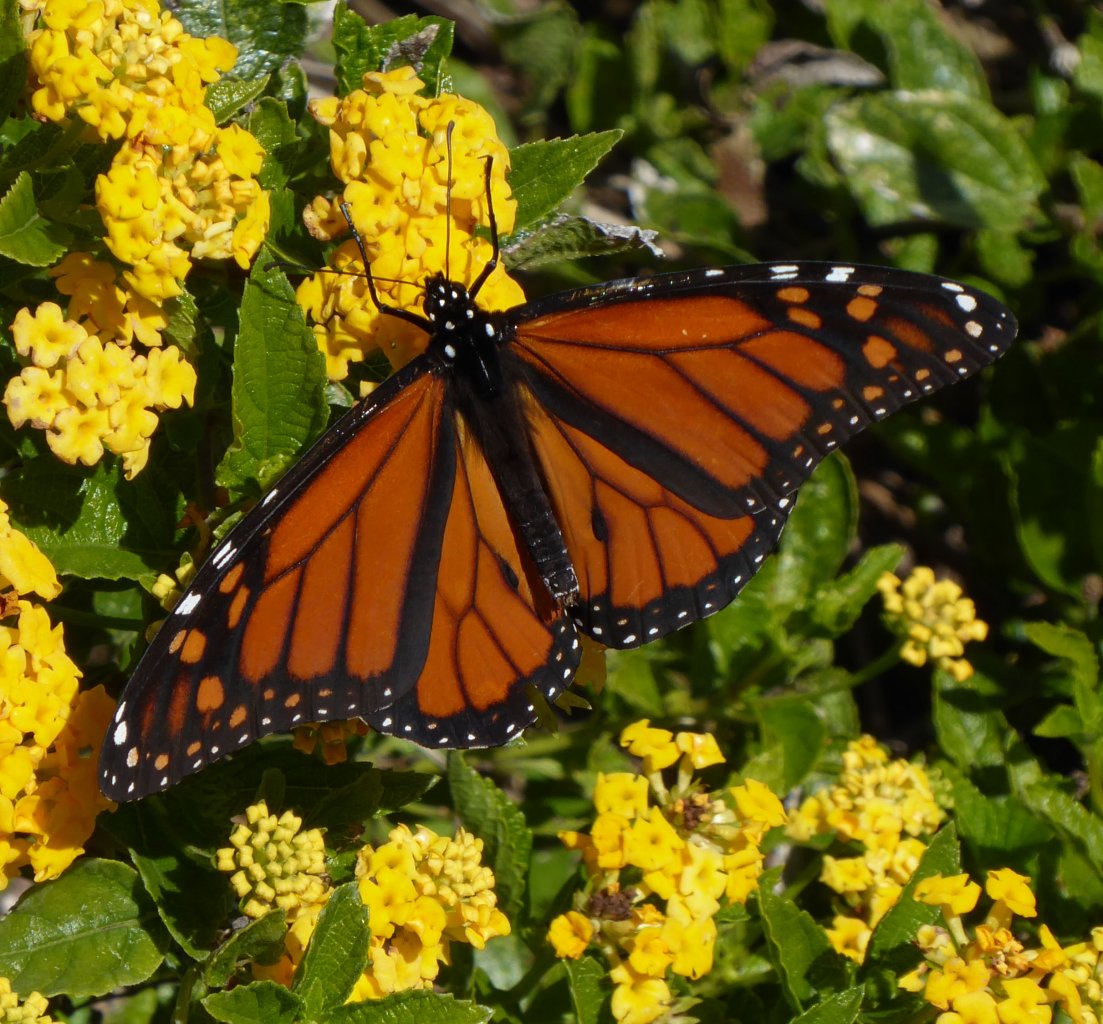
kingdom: Animalia
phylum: Arthropoda
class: Insecta
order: Lepidoptera
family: Nymphalidae
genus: Danaus
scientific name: Danaus plexippus
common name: Monarch
